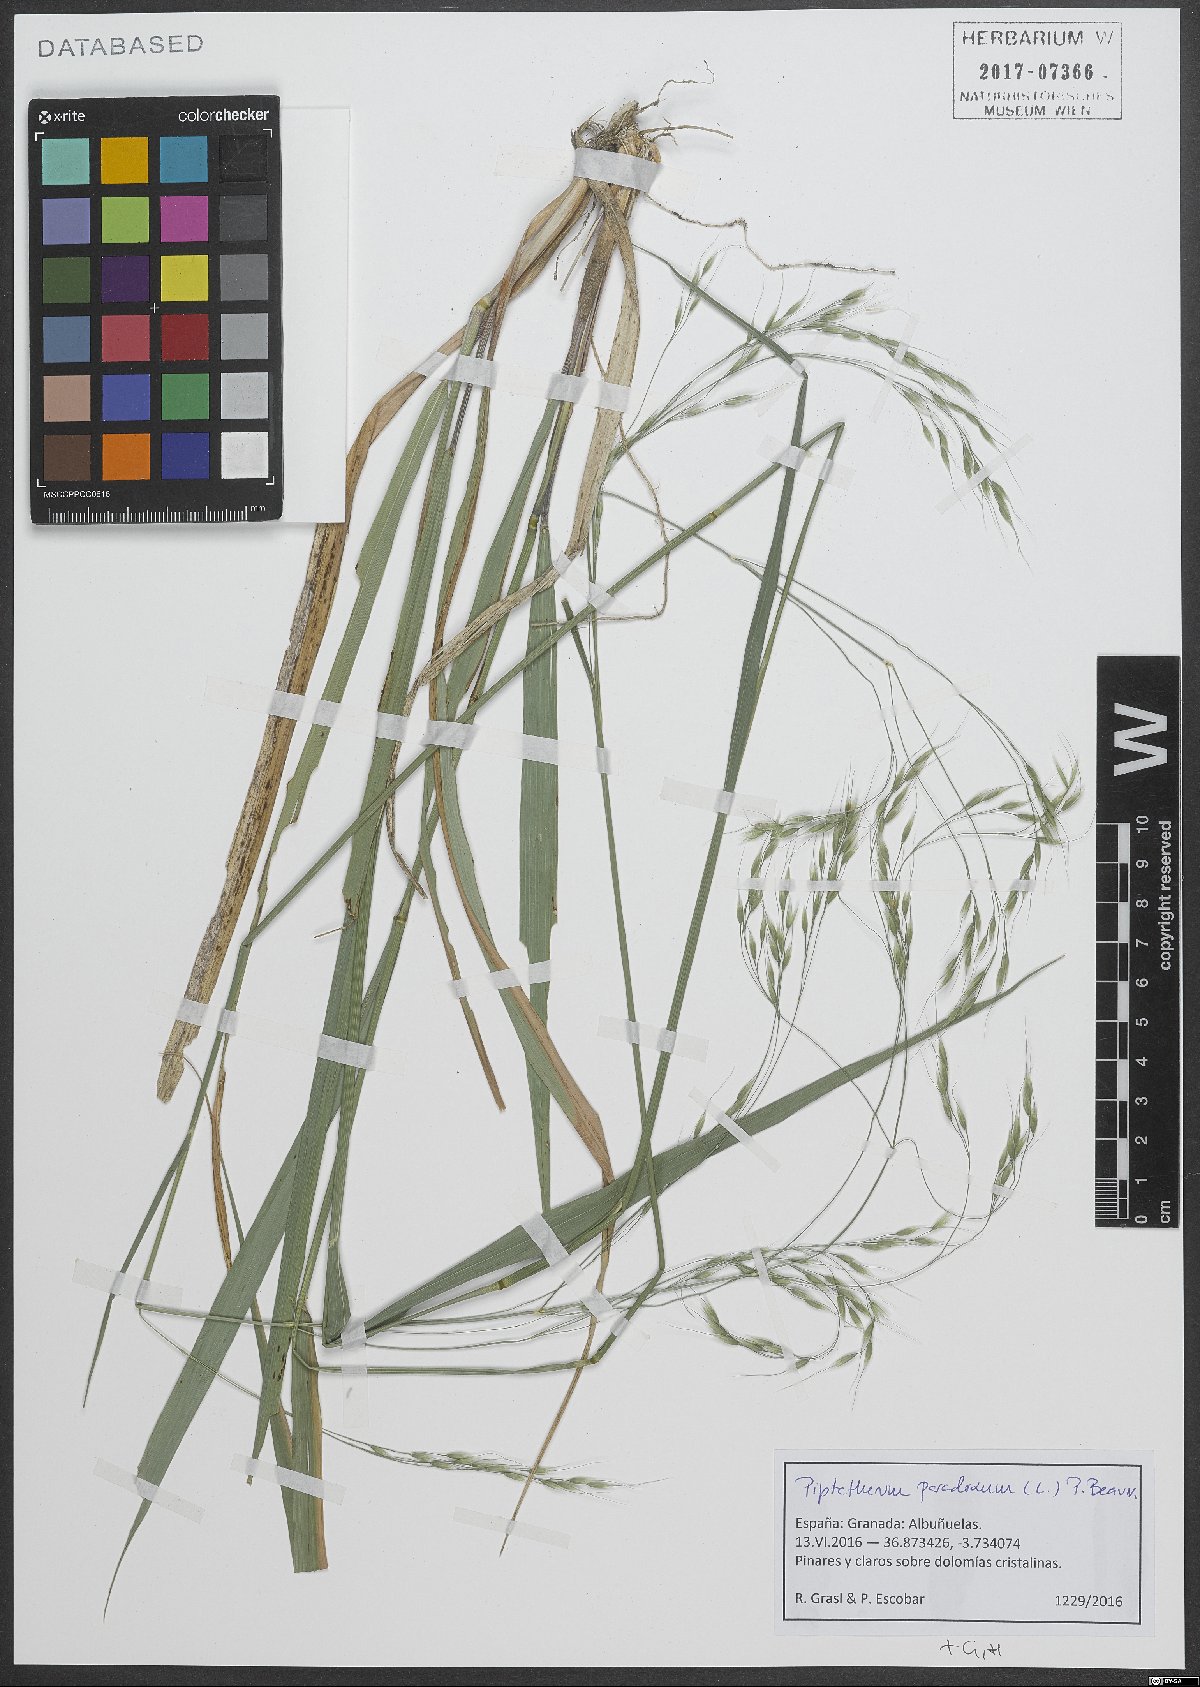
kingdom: Plantae
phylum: Tracheophyta
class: Liliopsida
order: Poales
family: Poaceae
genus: Achnatherum
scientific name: Achnatherum paradoxum
